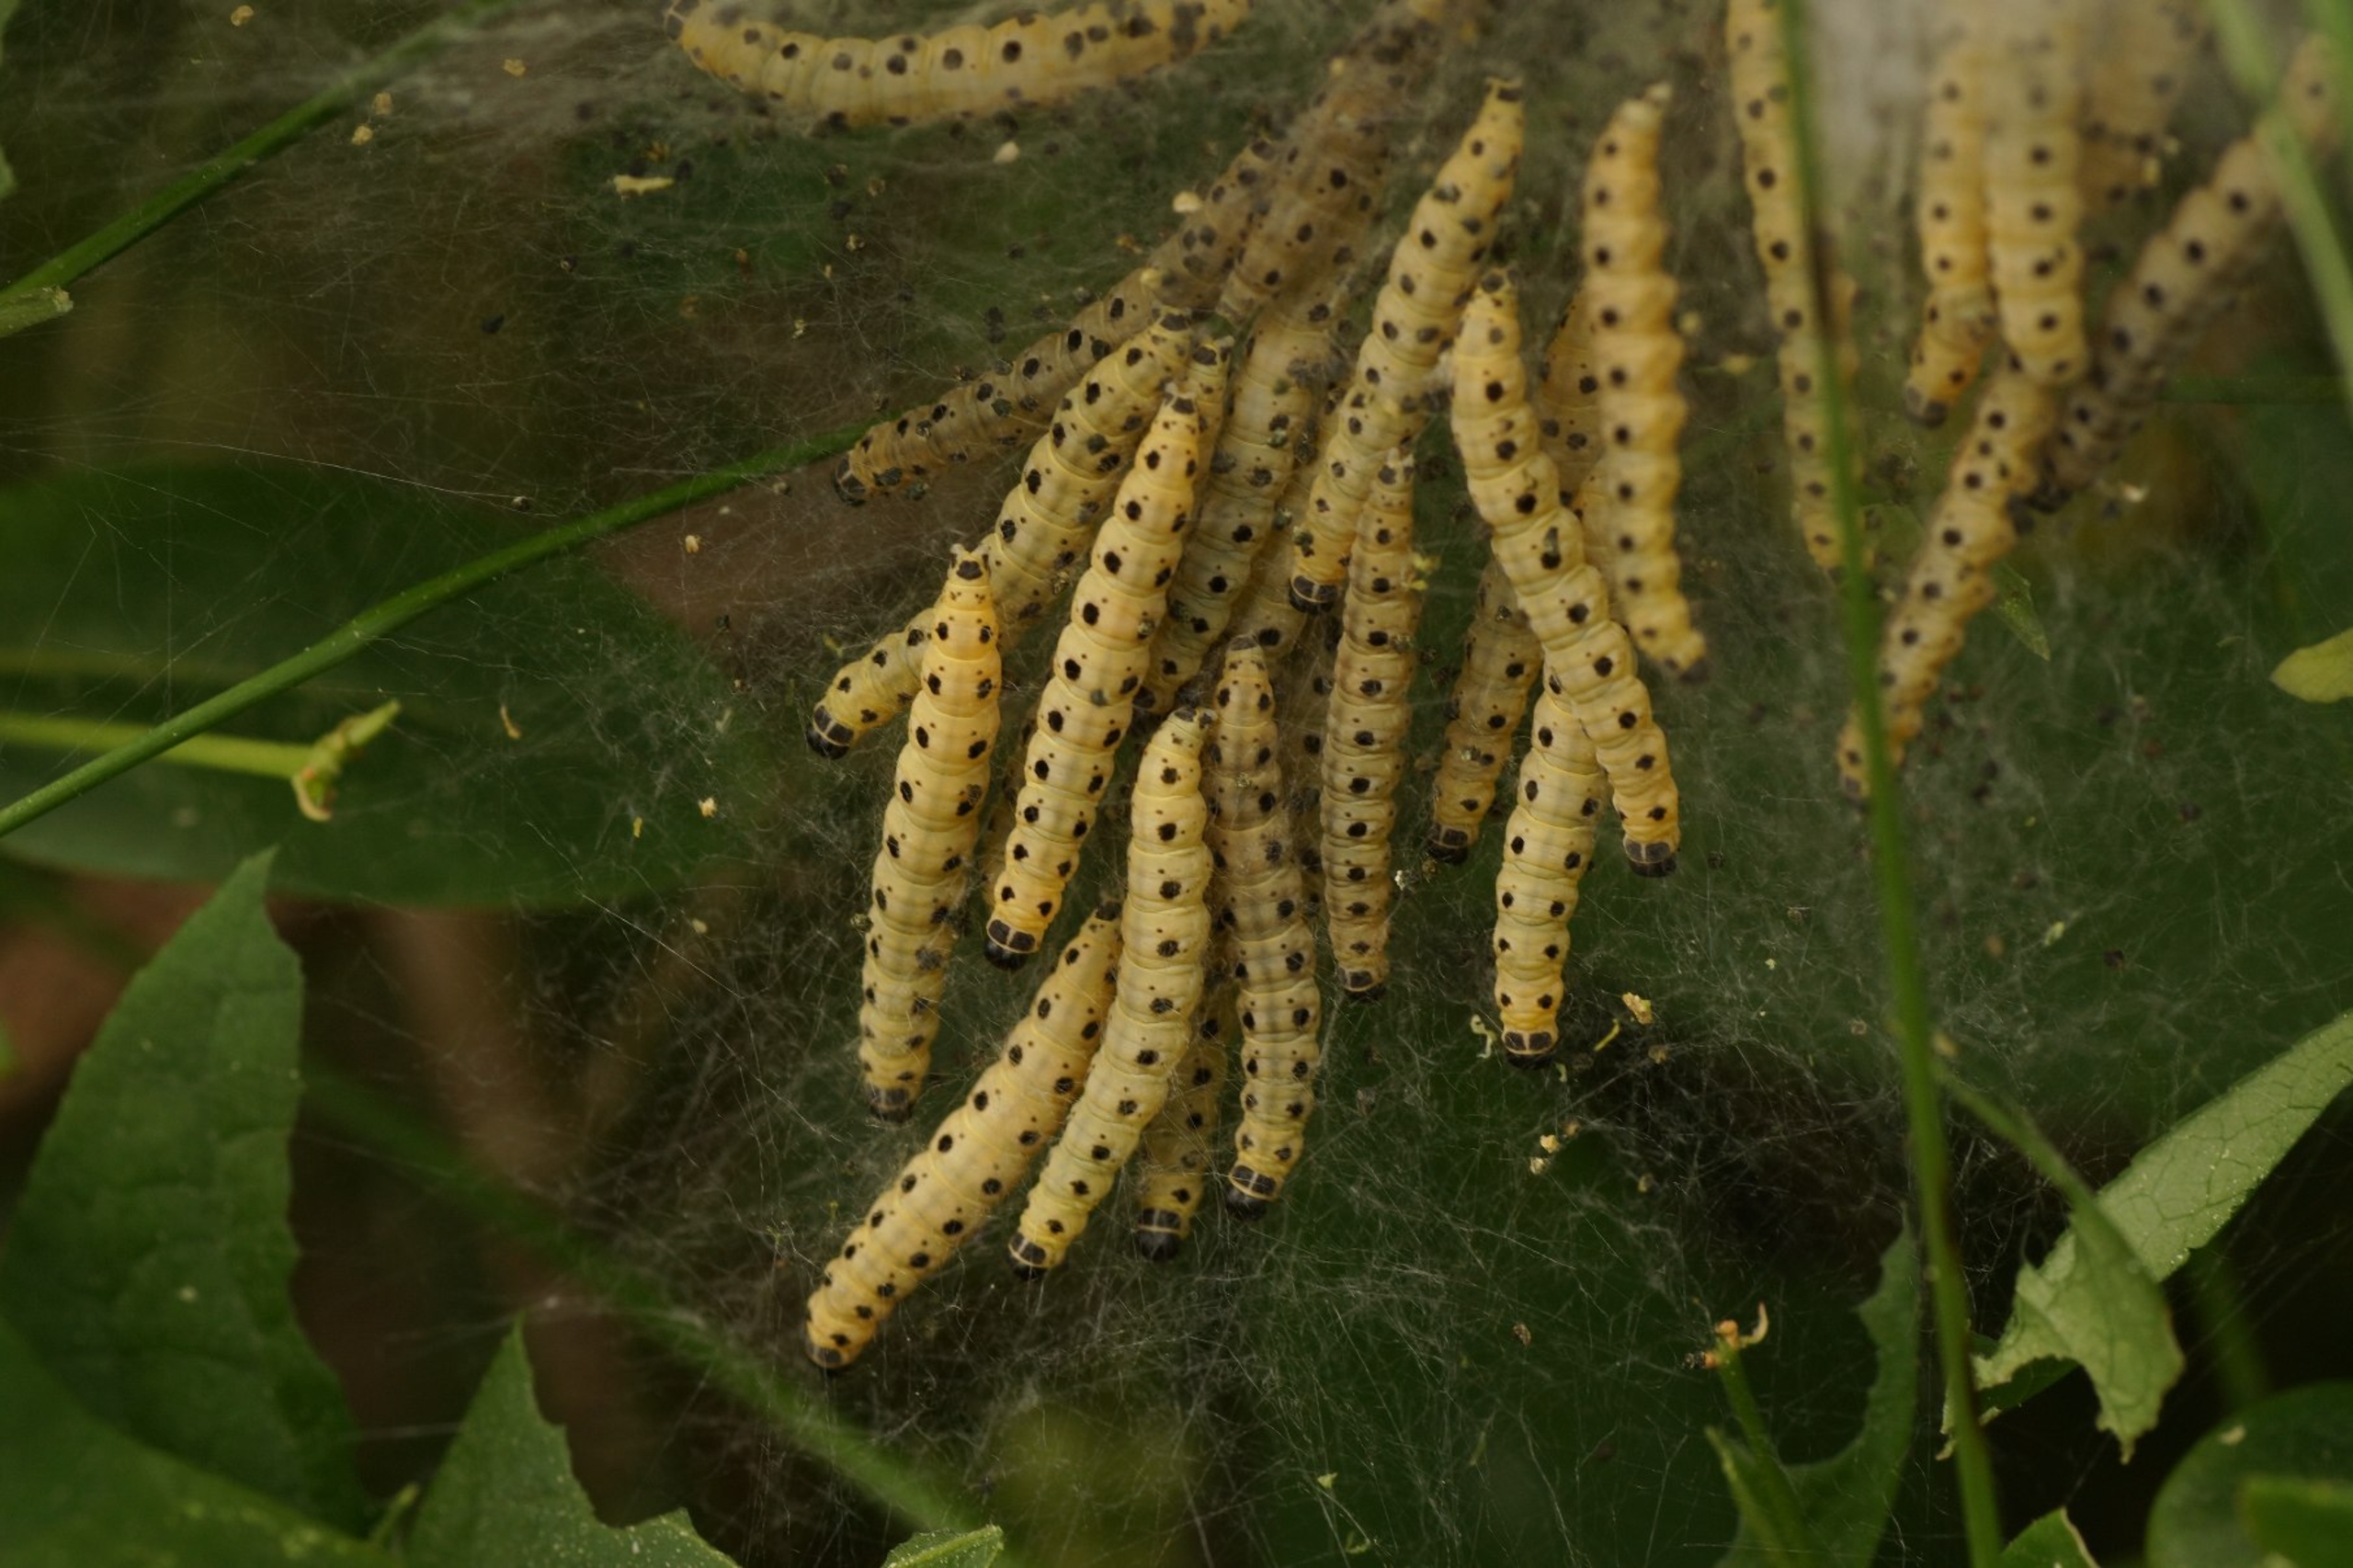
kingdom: Animalia
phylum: Arthropoda
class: Insecta
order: Lepidoptera
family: Yponomeutidae
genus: Yponomeuta
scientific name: Yponomeuta cagnagellus
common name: Benvedspindemøl
